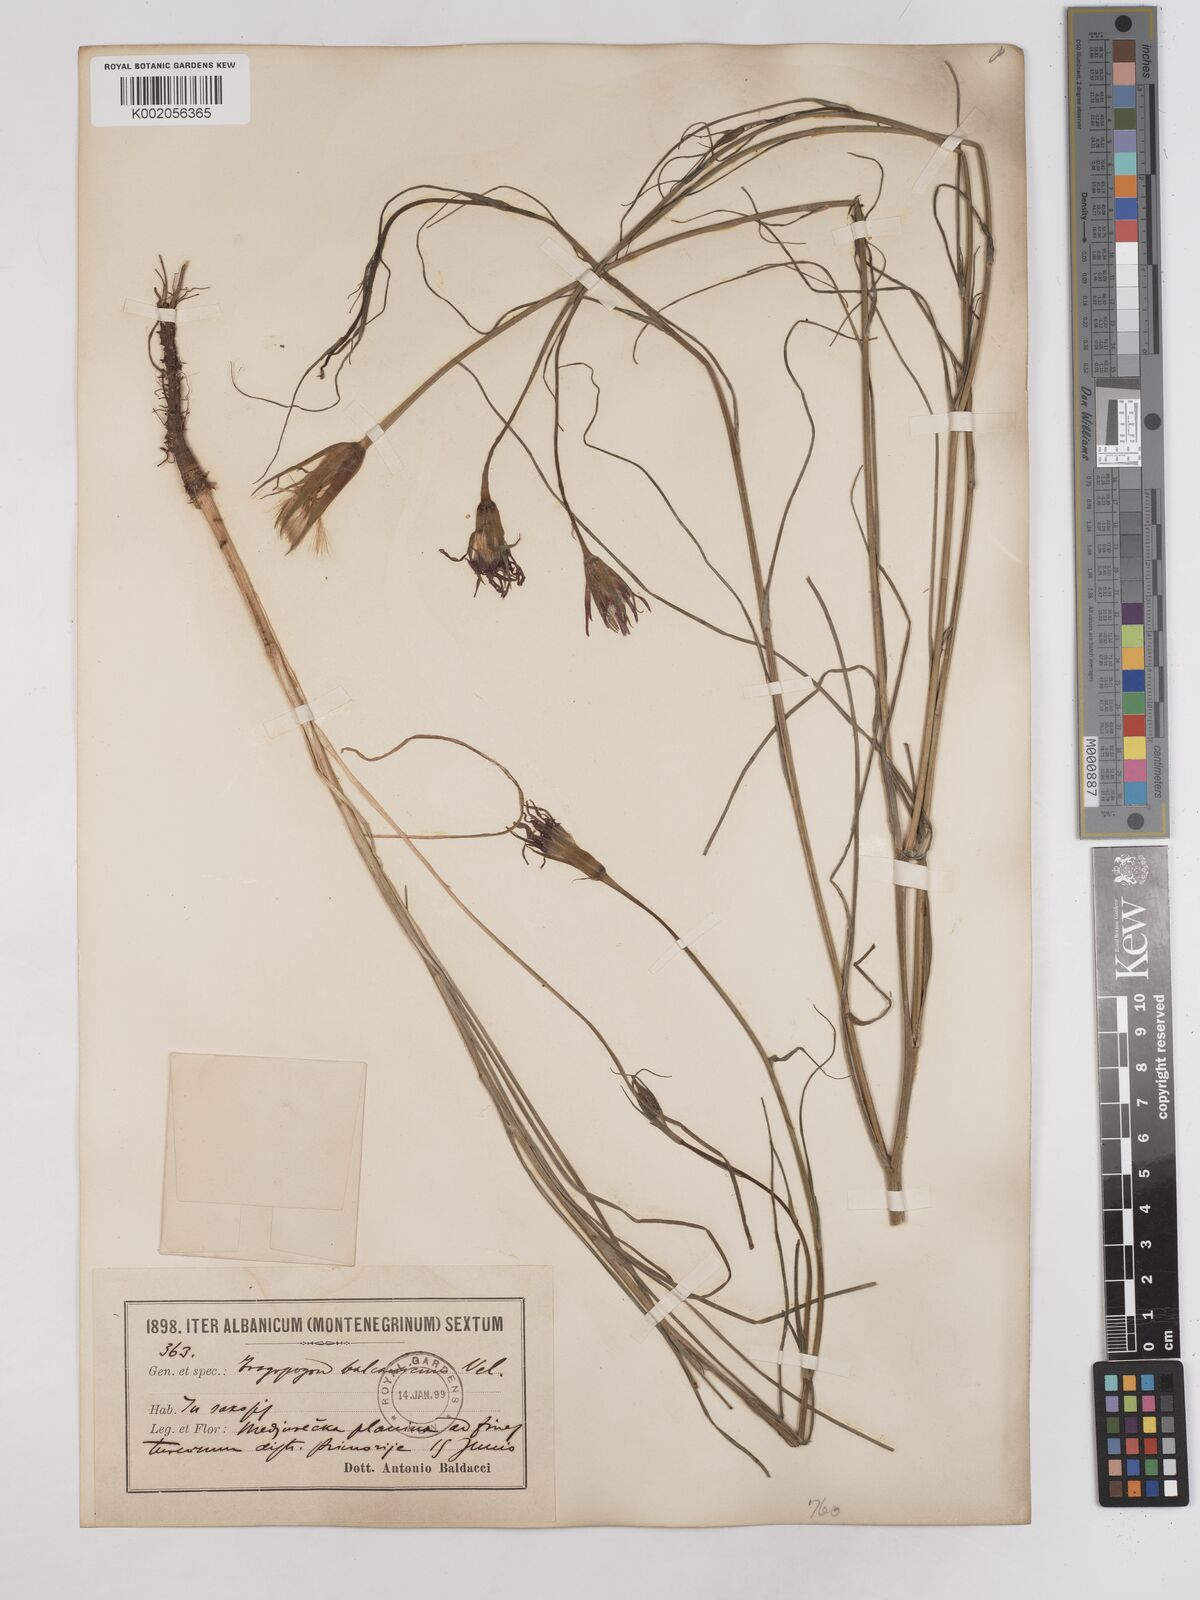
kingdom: Plantae
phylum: Tracheophyta
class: Magnoliopsida
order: Asterales
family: Asteraceae
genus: Tragopogon
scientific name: Tragopogon balcanicus
